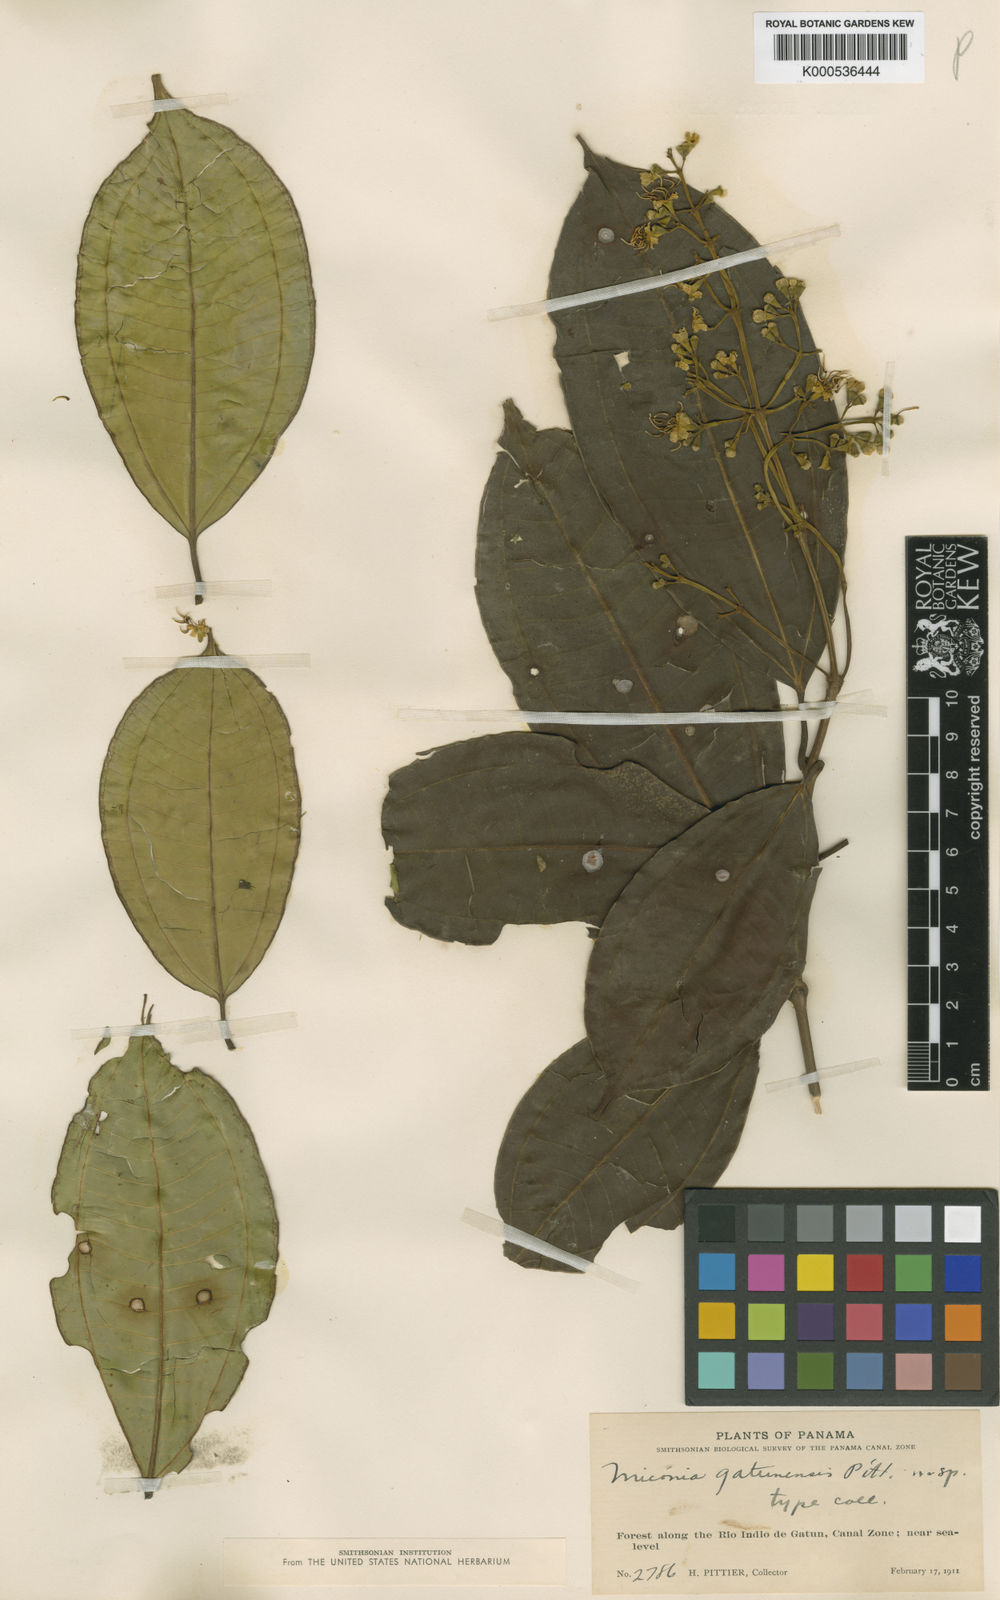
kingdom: Plantae
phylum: Tracheophyta
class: Magnoliopsida
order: Myrtales
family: Melastomataceae
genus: Miconia
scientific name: Miconia hondurensis
